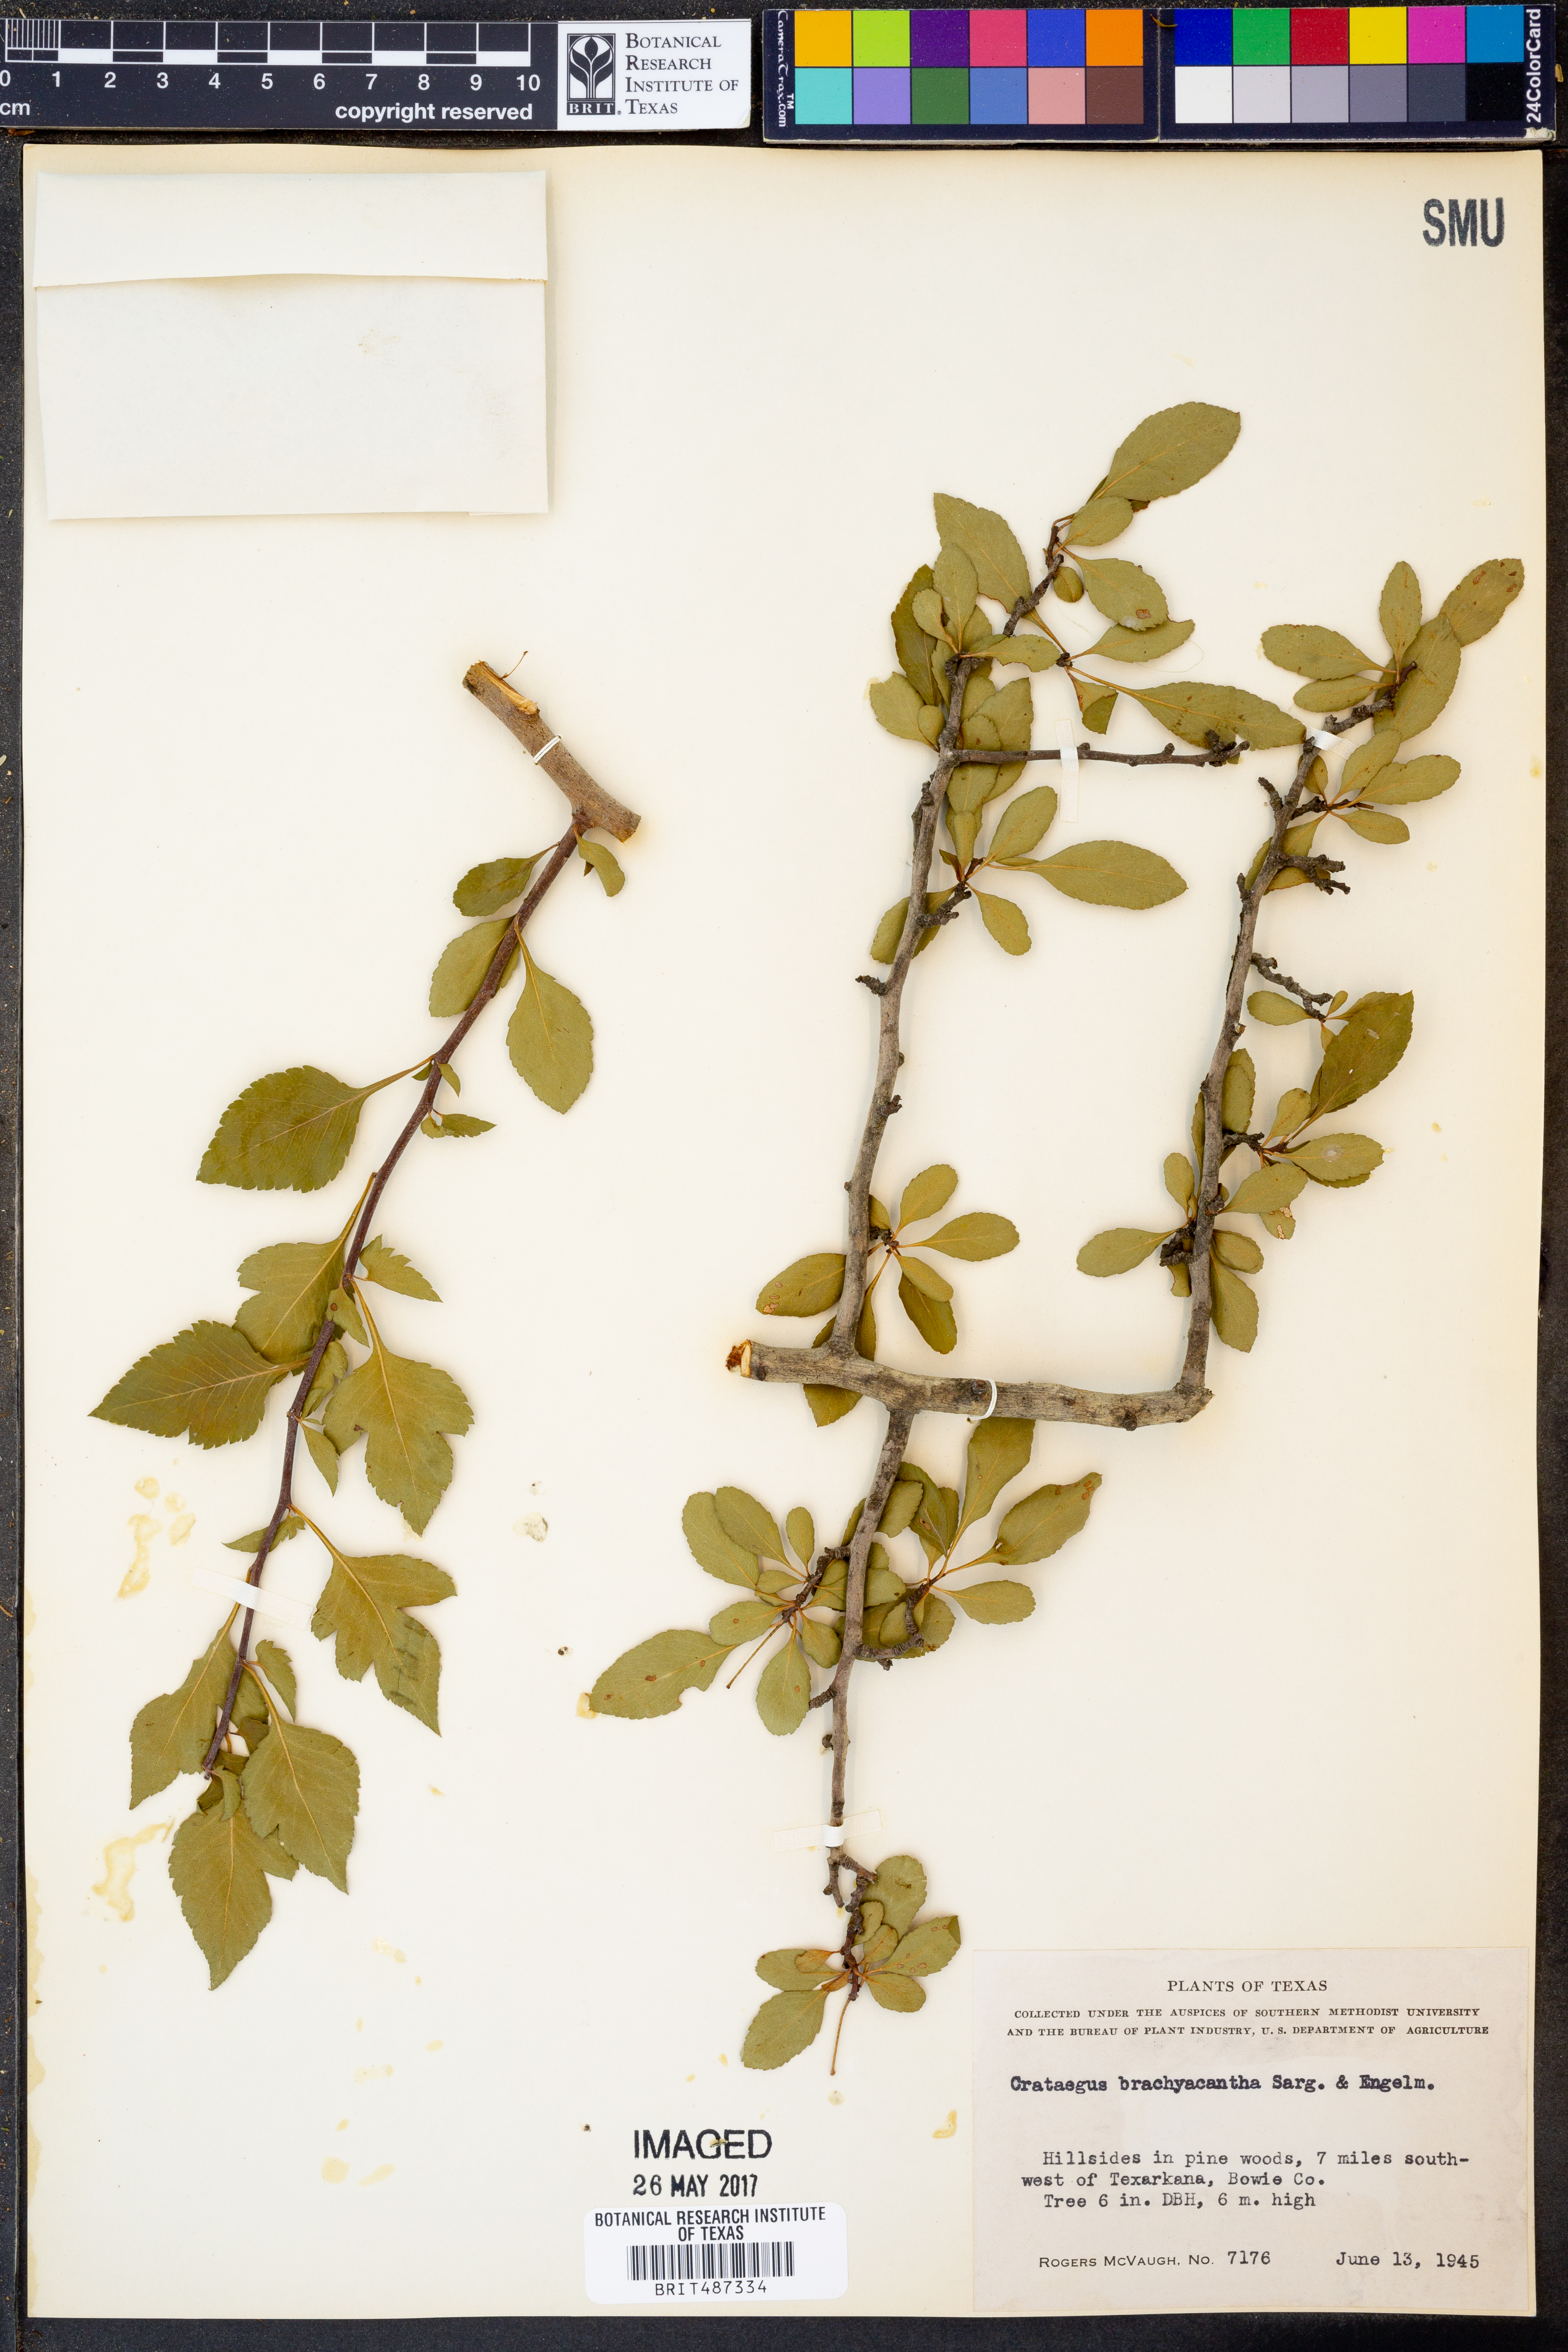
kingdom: Plantae
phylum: Tracheophyta
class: Magnoliopsida
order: Rosales
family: Rosaceae
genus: Crataegus
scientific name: Crataegus brachyacantha
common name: Blueberry-hawthorn
